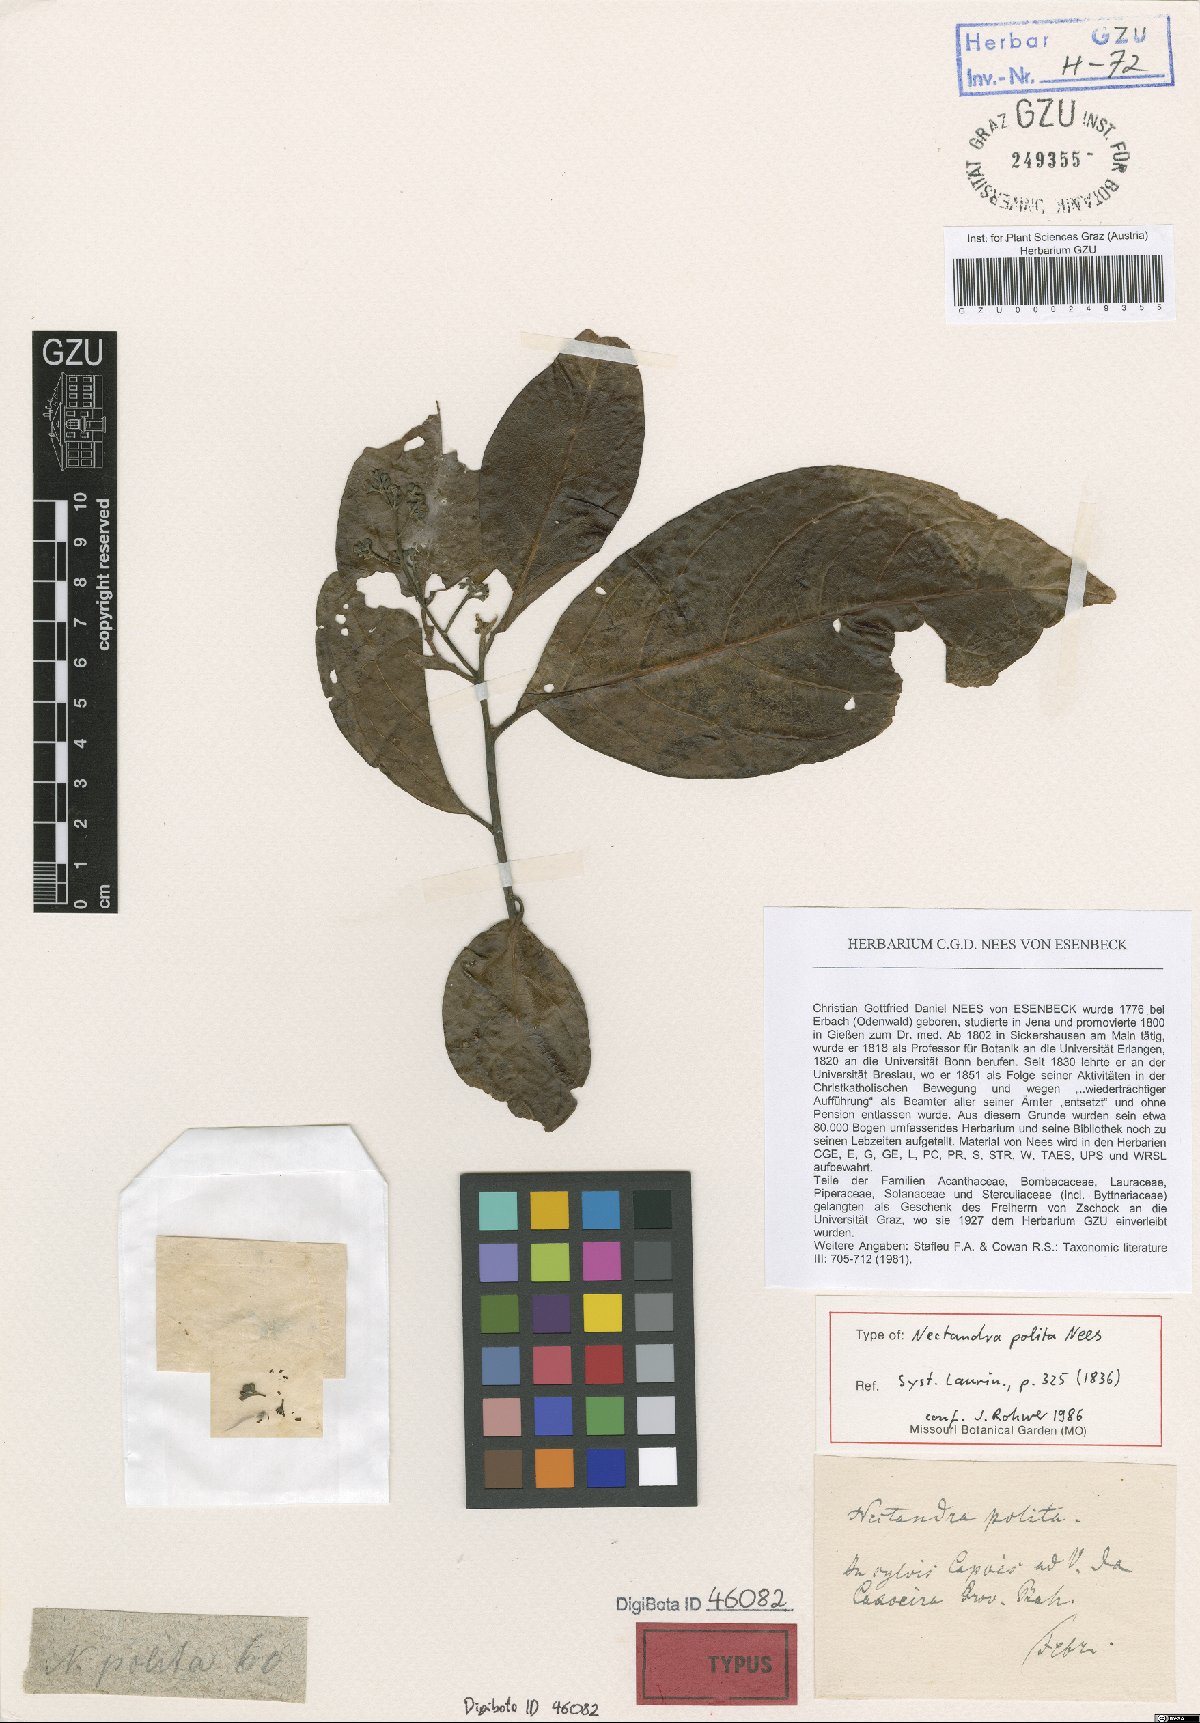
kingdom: Plantae
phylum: Tracheophyta
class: Magnoliopsida
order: Laurales
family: Lauraceae
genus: Damburneya
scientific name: Damburneya purpurea
